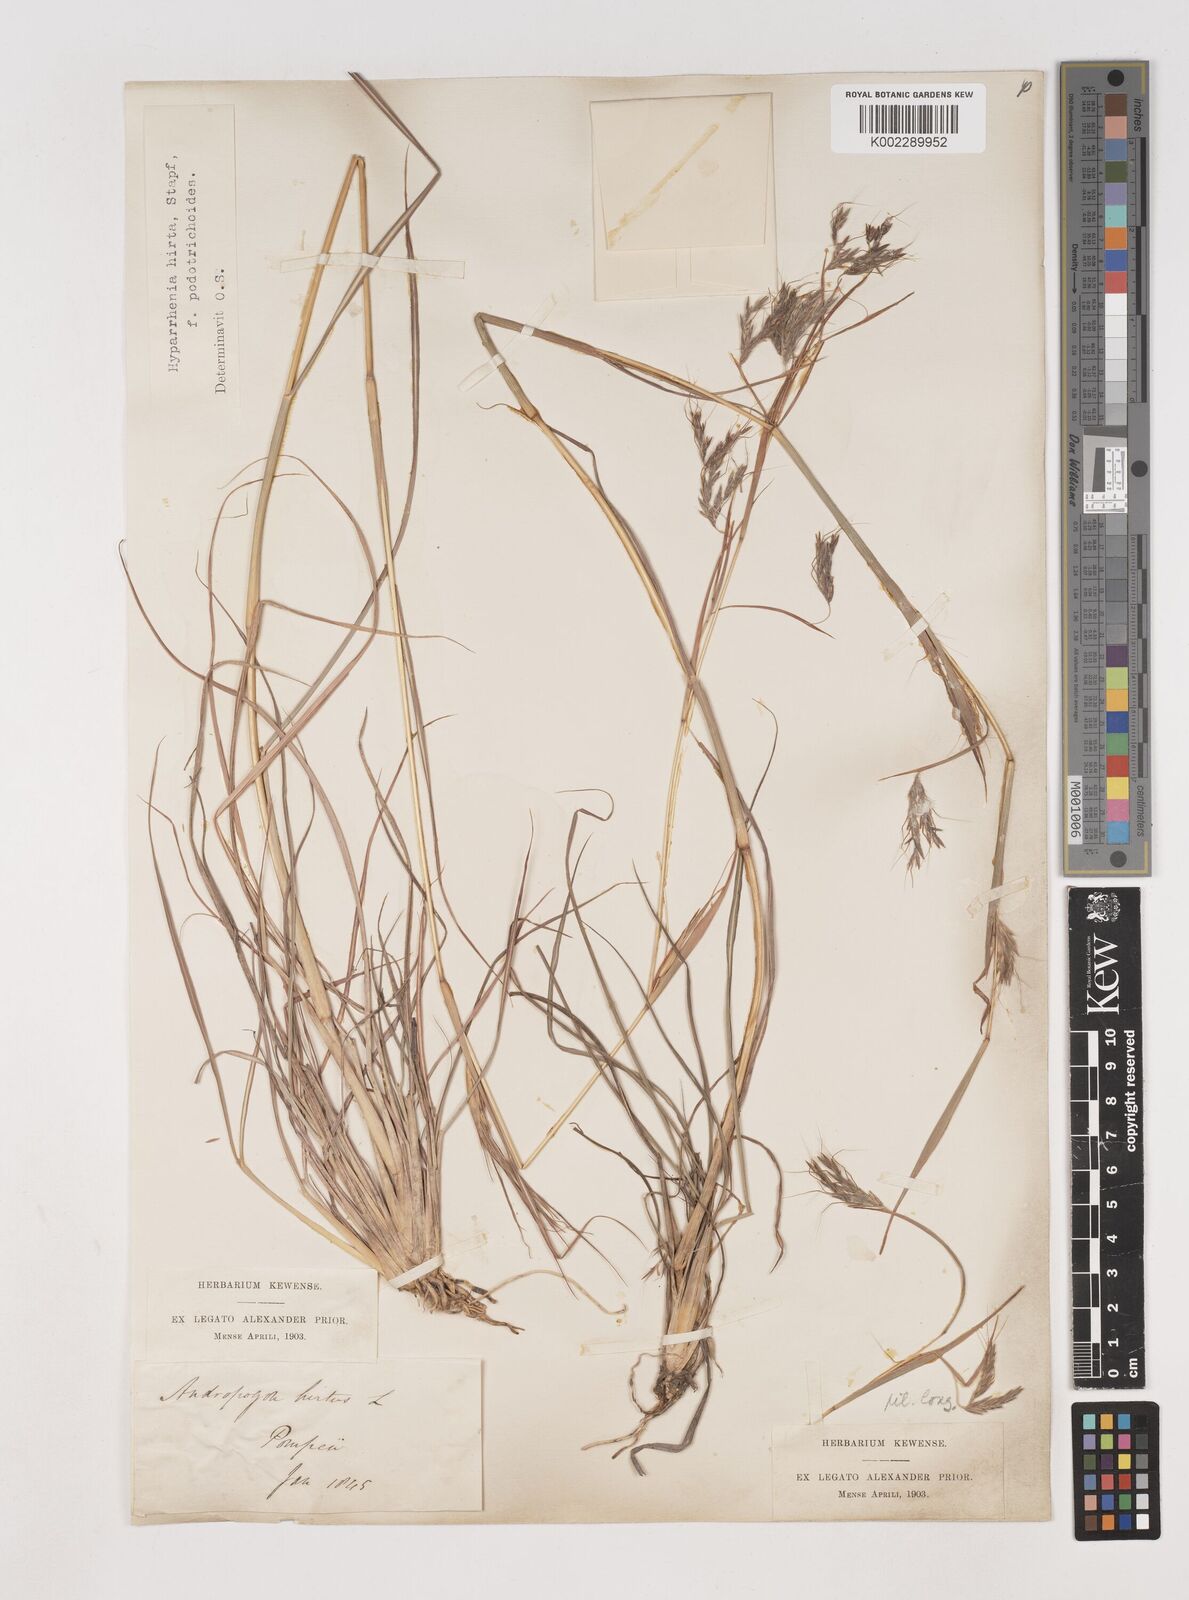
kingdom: Plantae
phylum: Tracheophyta
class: Liliopsida
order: Poales
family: Poaceae
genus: Hyparrhenia
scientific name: Hyparrhenia hirta
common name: Thatching grass
